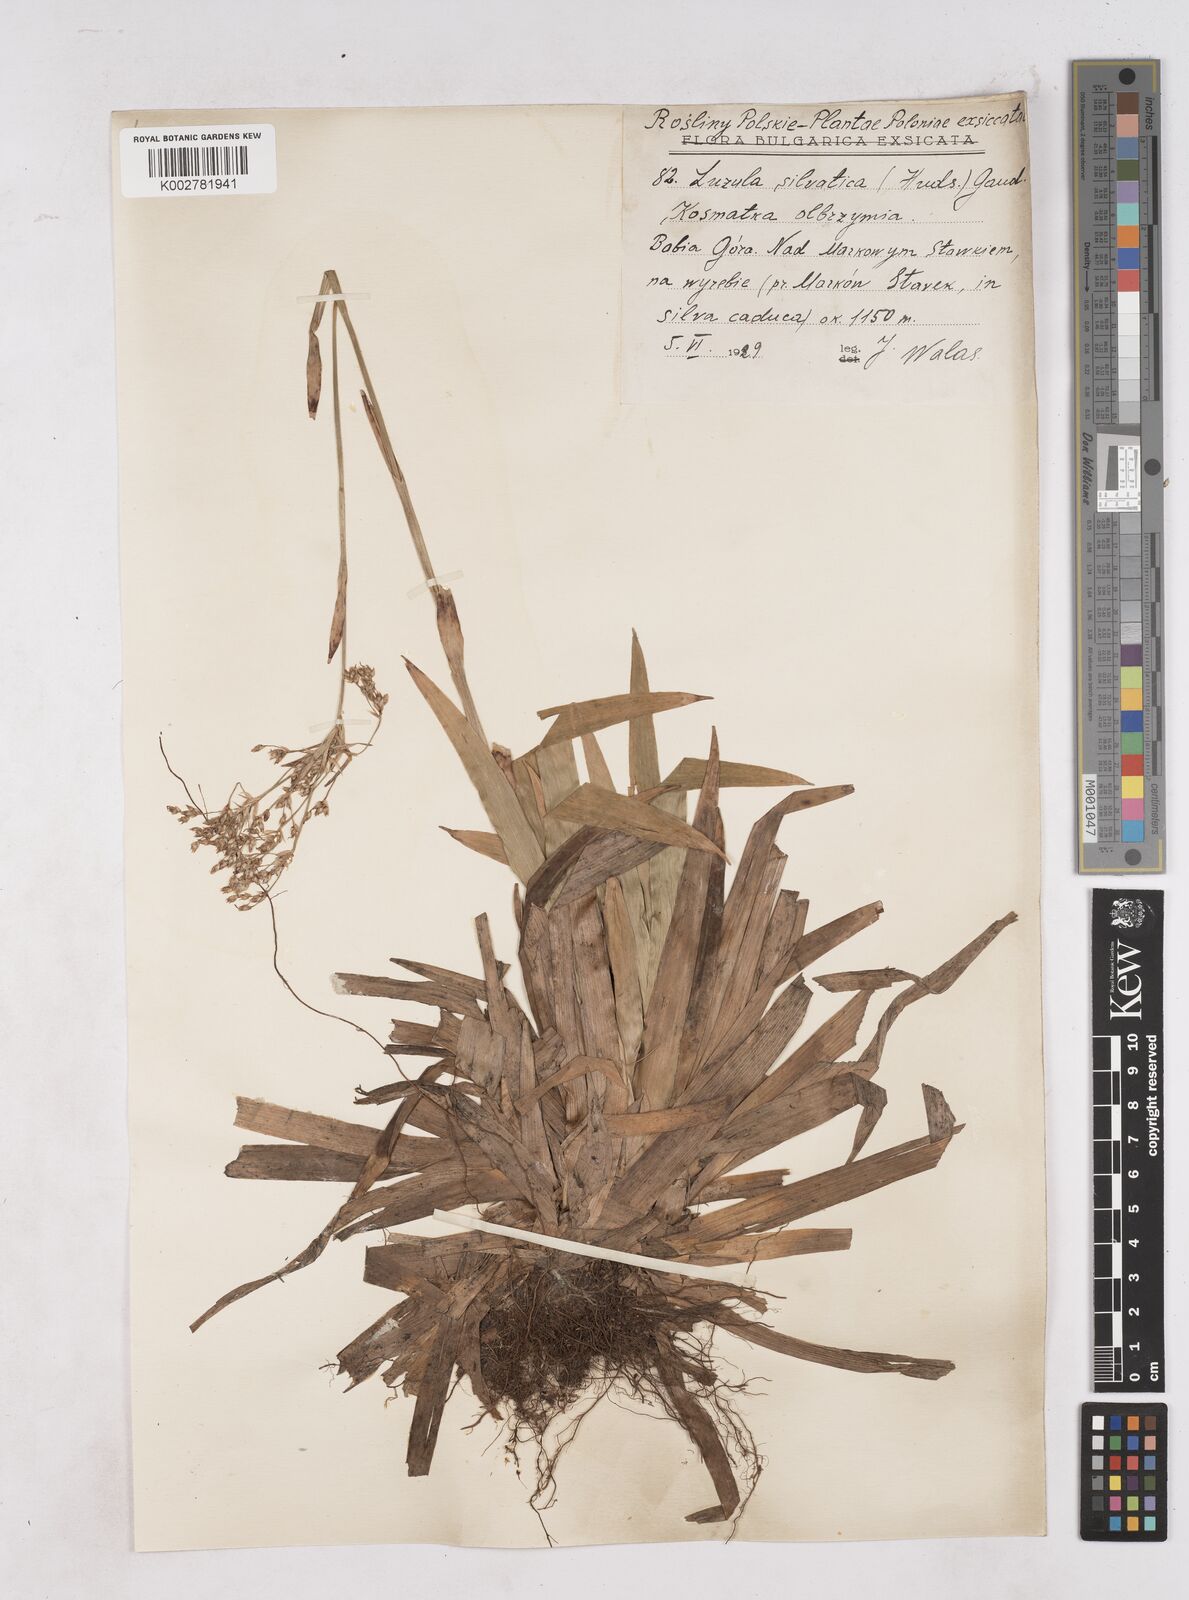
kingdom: Plantae
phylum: Tracheophyta
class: Liliopsida
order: Poales
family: Juncaceae
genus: Luzula
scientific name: Luzula sylvatica
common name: Great wood-rush
